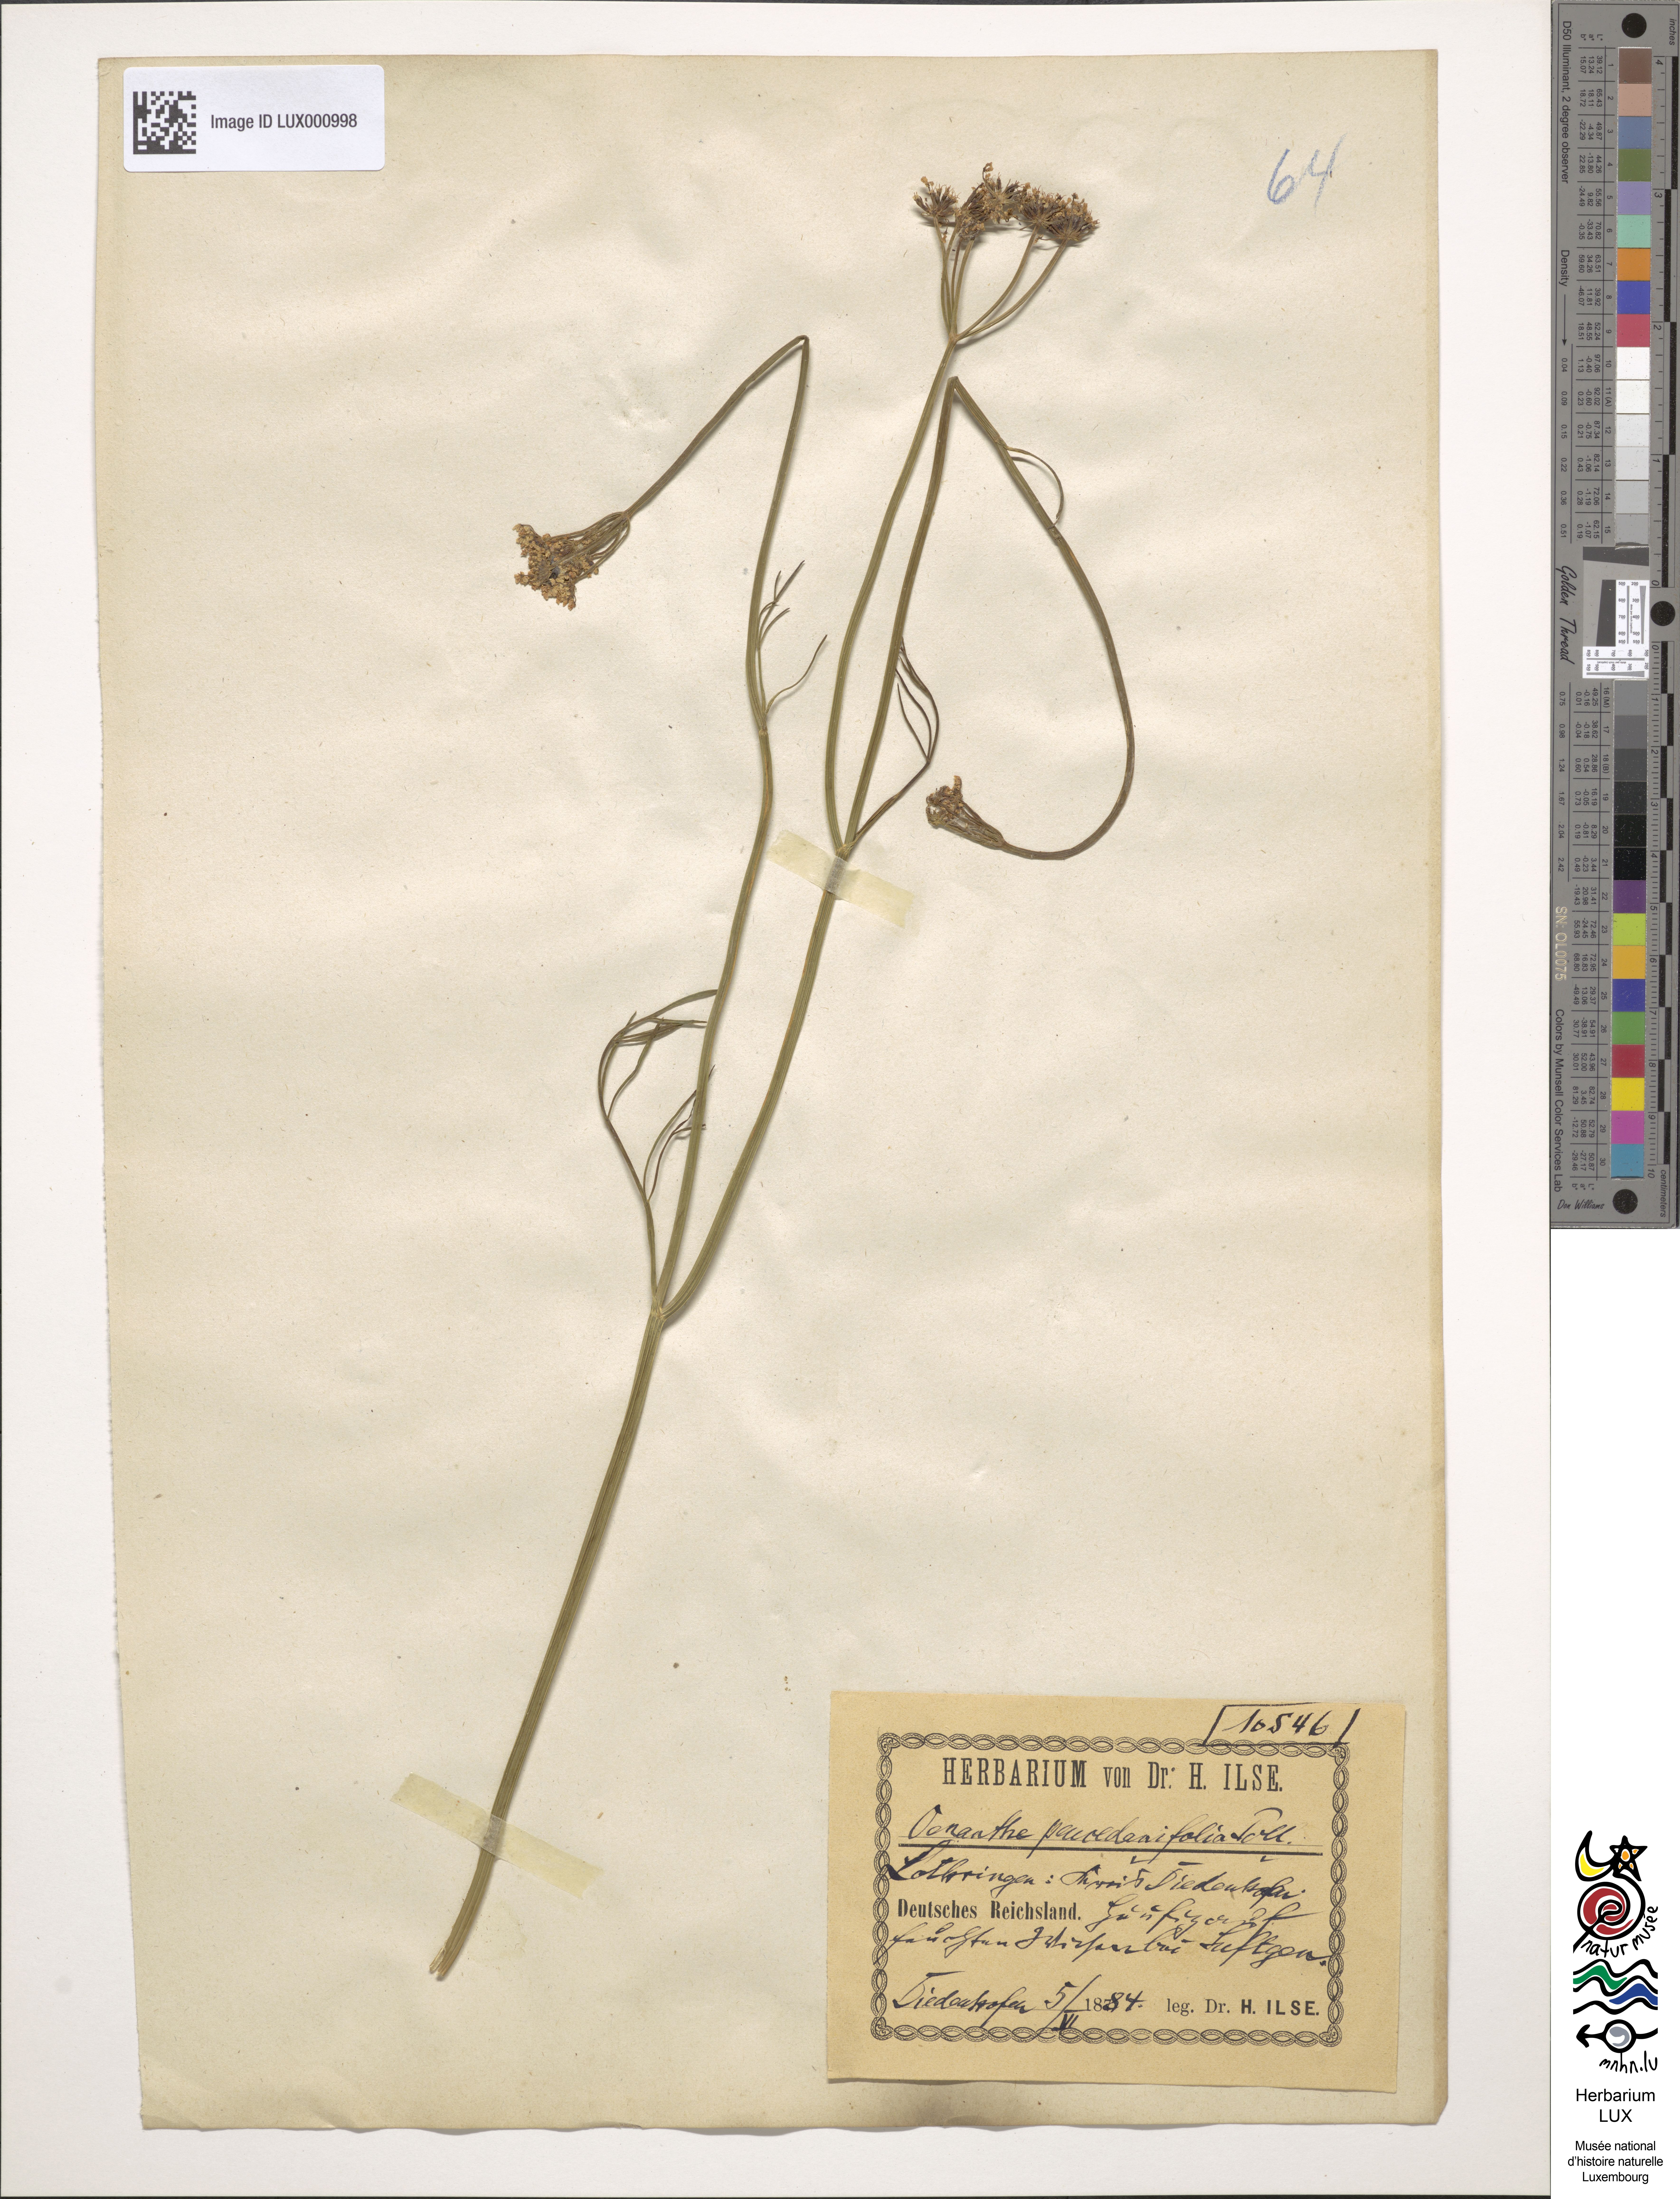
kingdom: Plantae
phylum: Tracheophyta
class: Magnoliopsida
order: Apiales
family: Apiaceae
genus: Oenanthe
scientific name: Oenanthe peucedanifolia
